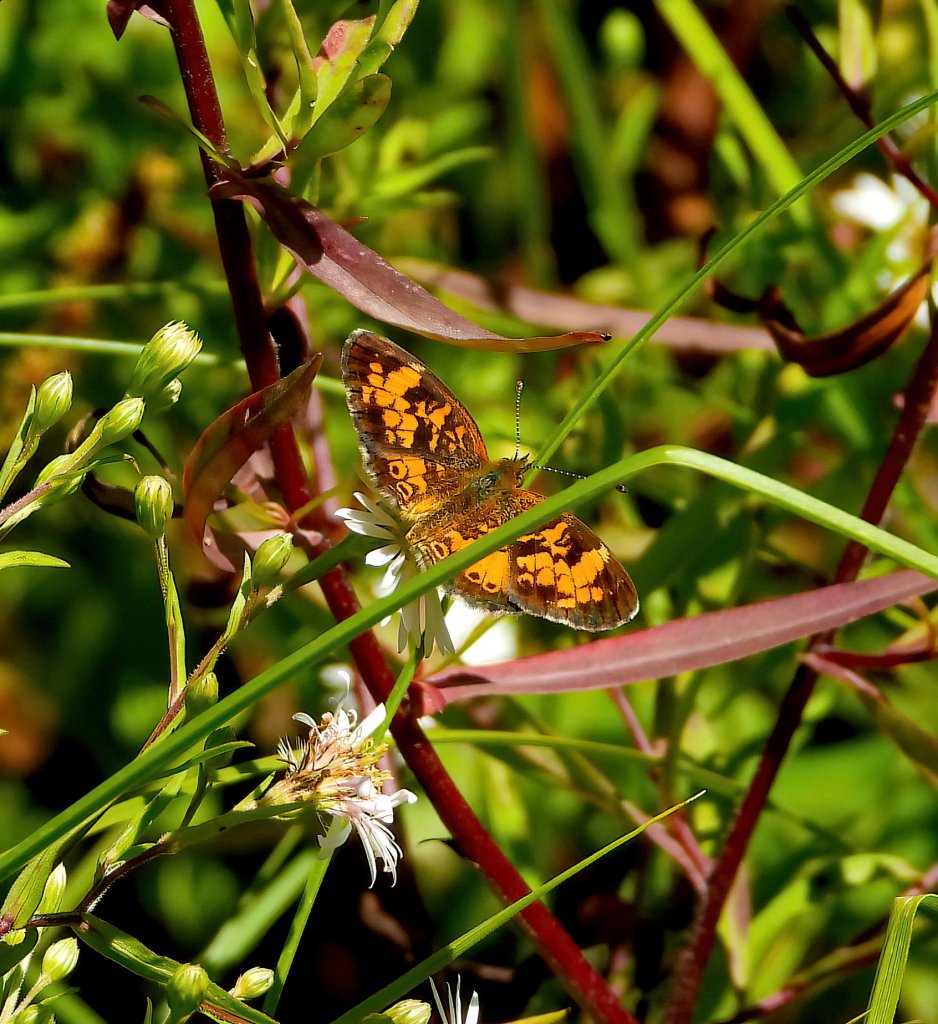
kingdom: Animalia
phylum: Arthropoda
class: Insecta
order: Lepidoptera
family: Nymphalidae
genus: Phyciodes
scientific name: Phyciodes tharos
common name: Pearl Crescent
